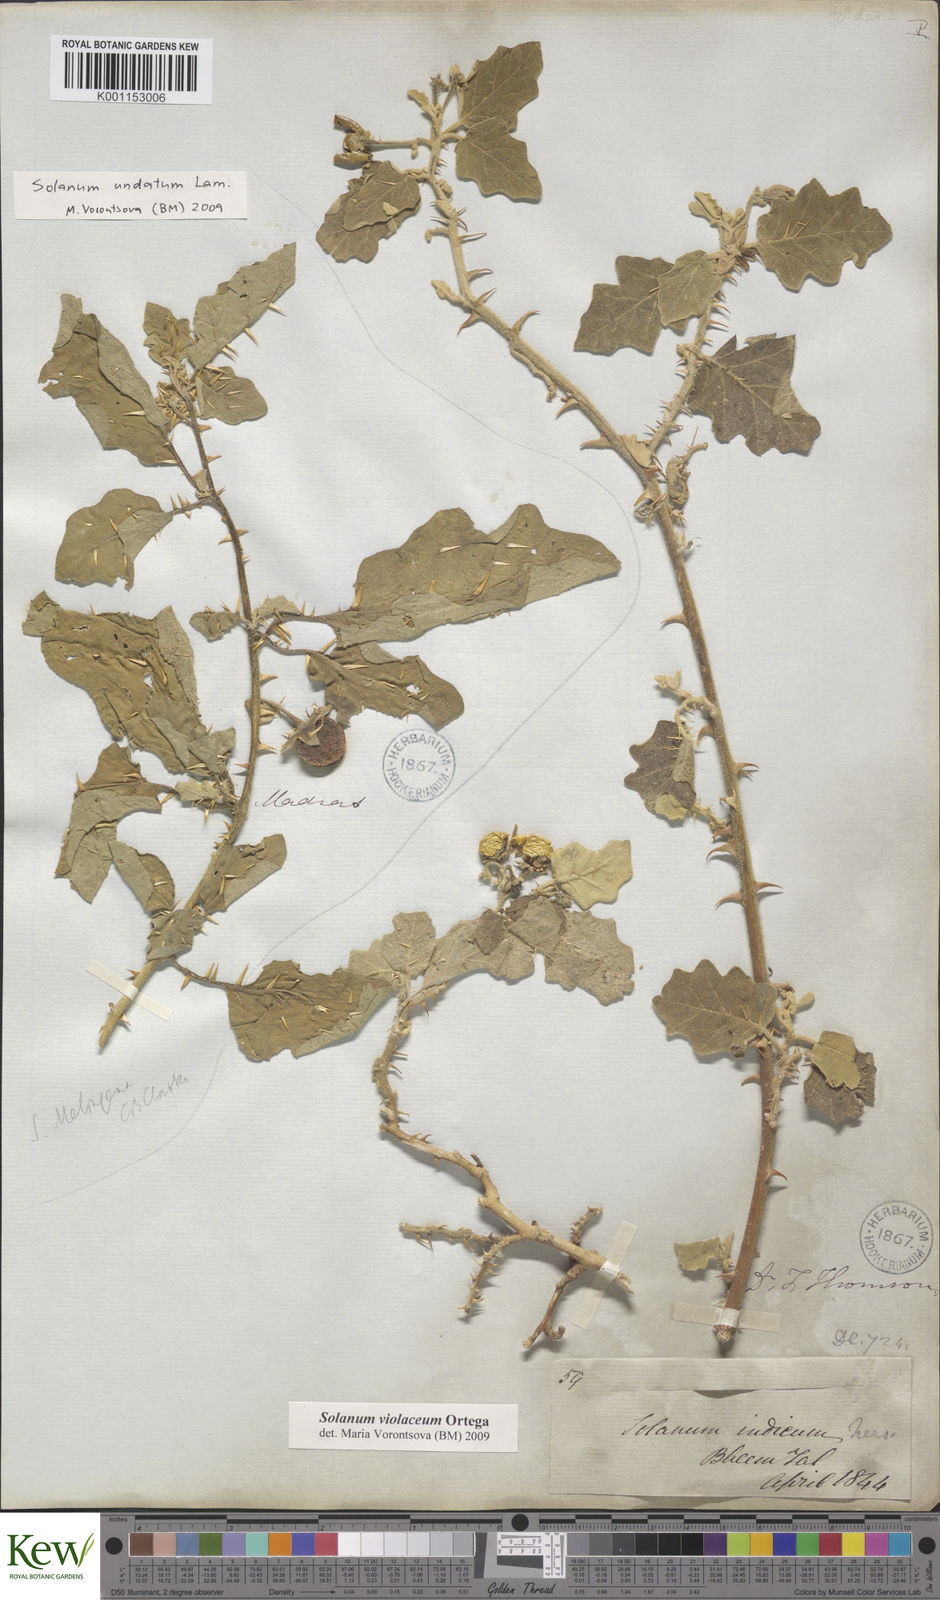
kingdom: Plantae
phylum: Tracheophyta
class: Magnoliopsida
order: Solanales
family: Solanaceae
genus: Solanum
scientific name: Solanum violaceum
